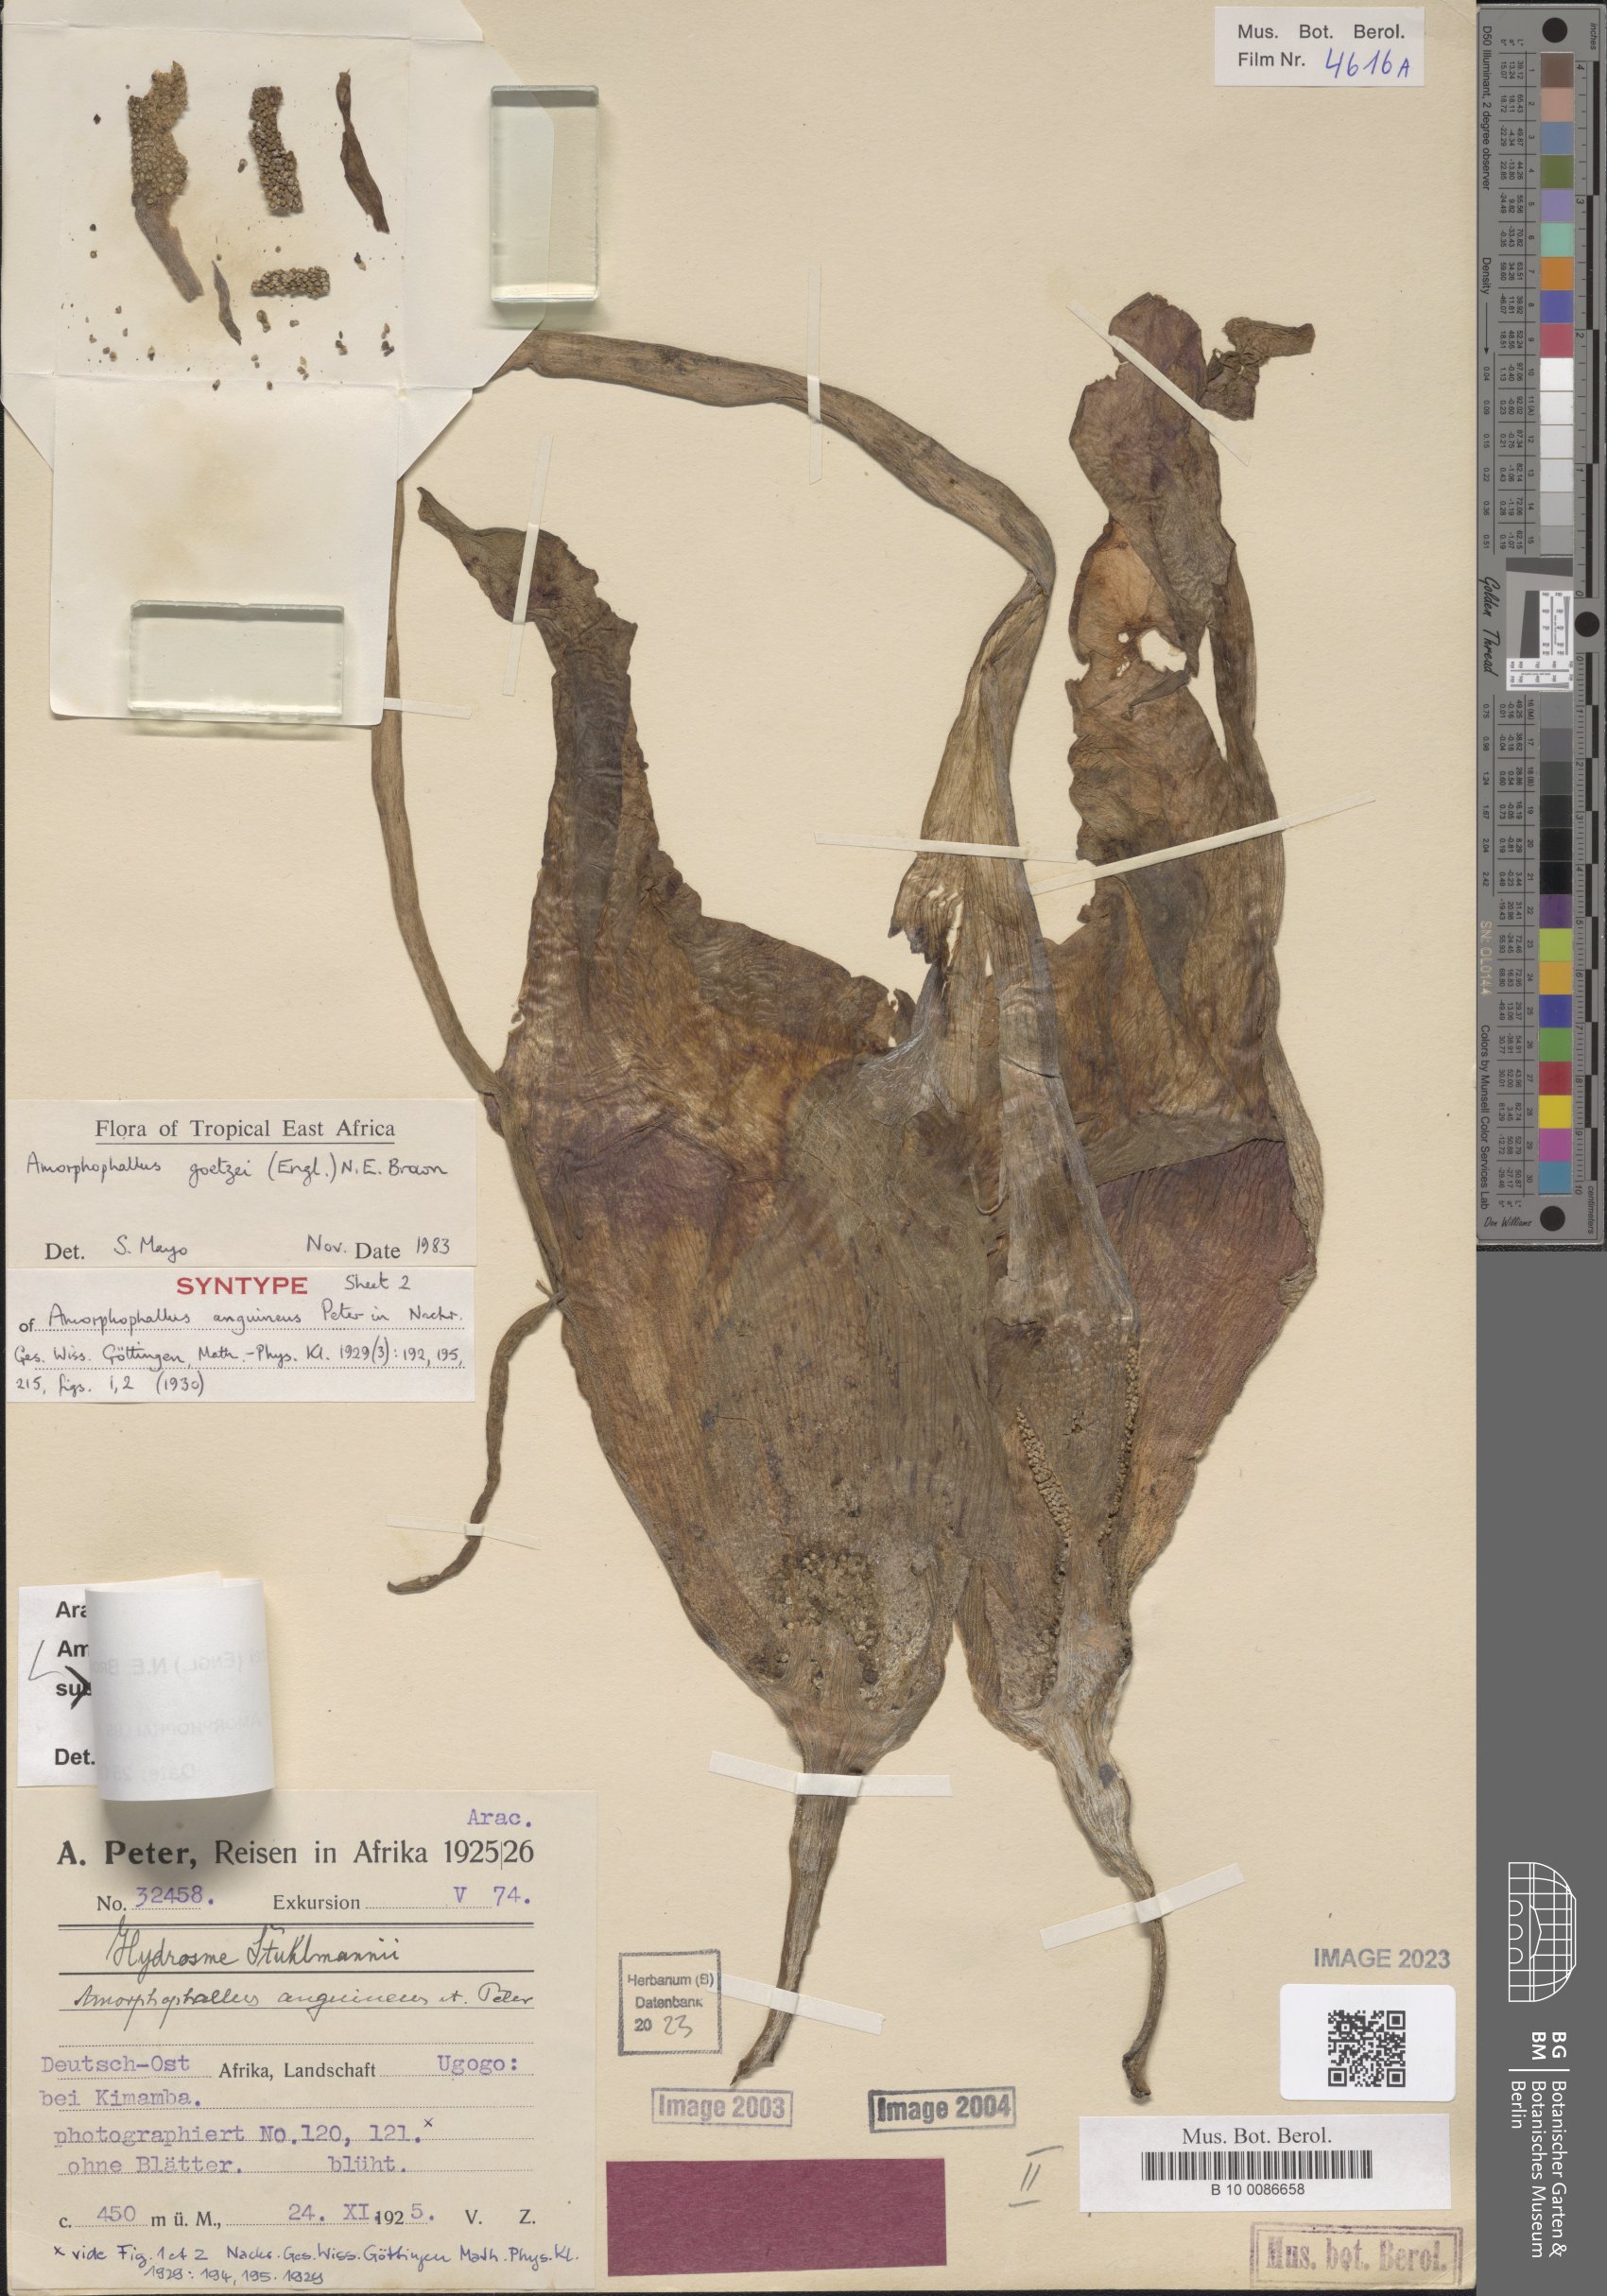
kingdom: Plantae
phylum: Tracheophyta
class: Liliopsida
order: Alismatales
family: Araceae
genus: Amorphophallus
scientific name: Amorphophallus goetzei
